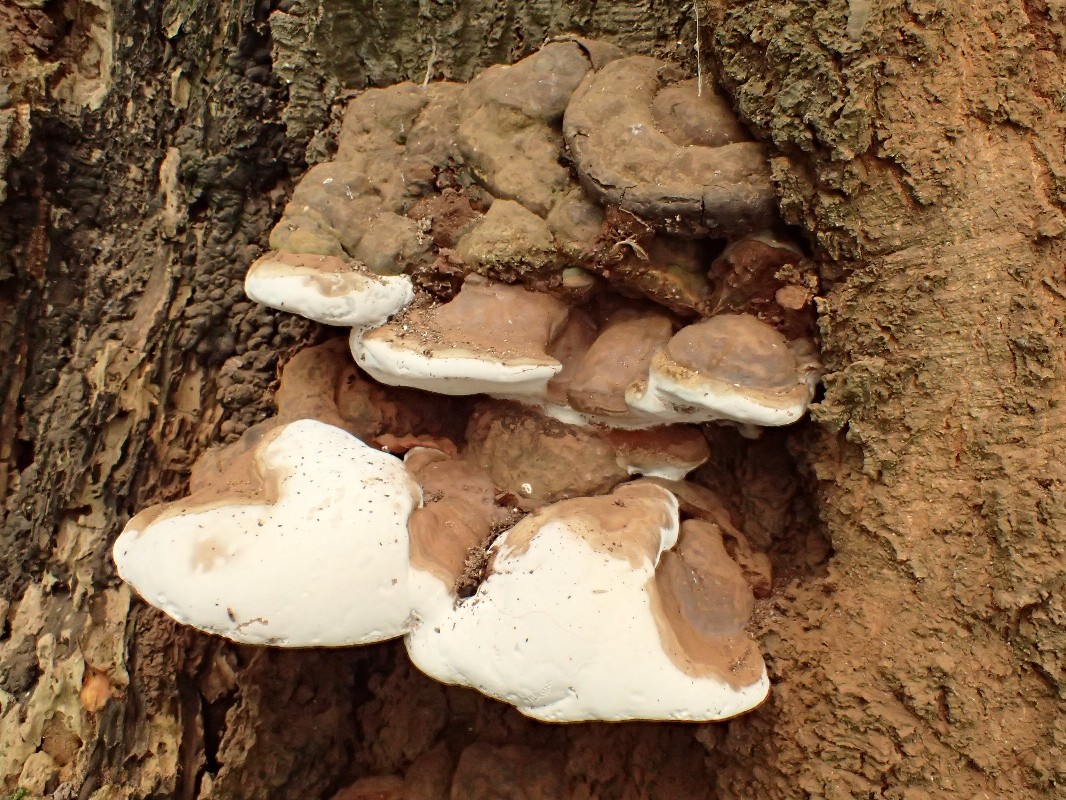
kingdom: Fungi
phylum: Basidiomycota
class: Agaricomycetes
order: Polyporales
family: Polyporaceae
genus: Ganoderma
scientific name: Ganoderma pfeifferi
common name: kobberrød lakporesvamp
